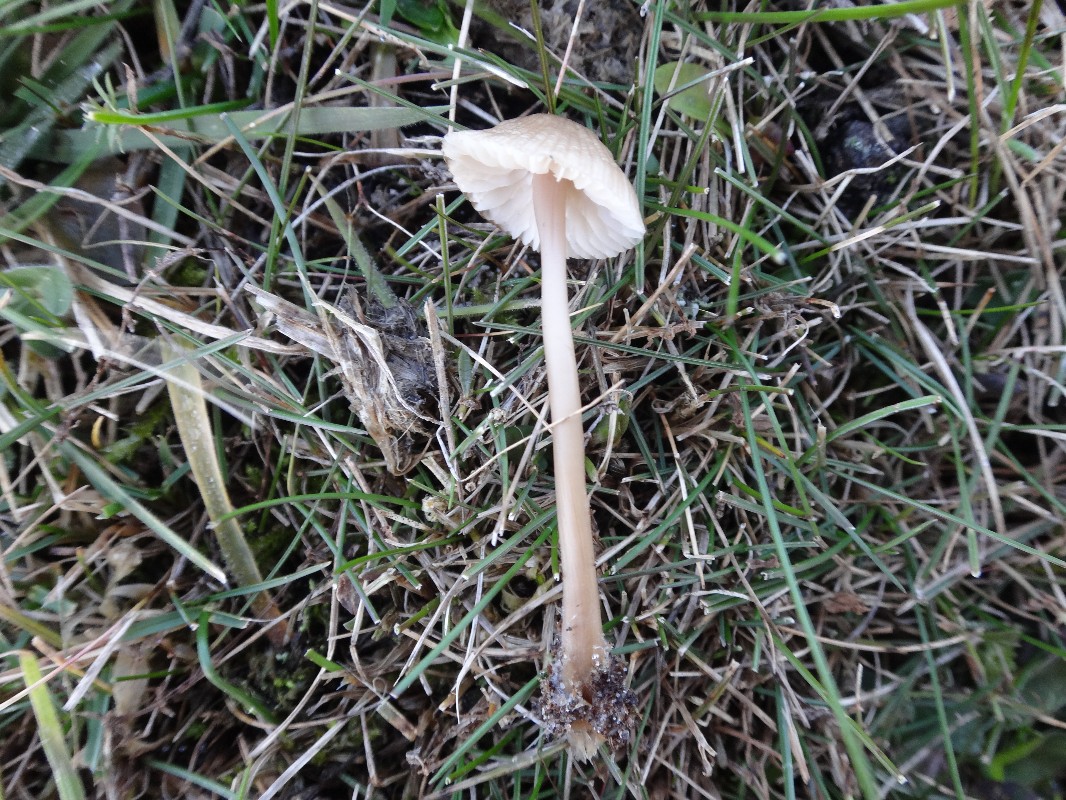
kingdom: Fungi
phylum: Basidiomycota
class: Agaricomycetes
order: Agaricales
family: Mycenaceae
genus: Mycena
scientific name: Mycena galericulata
